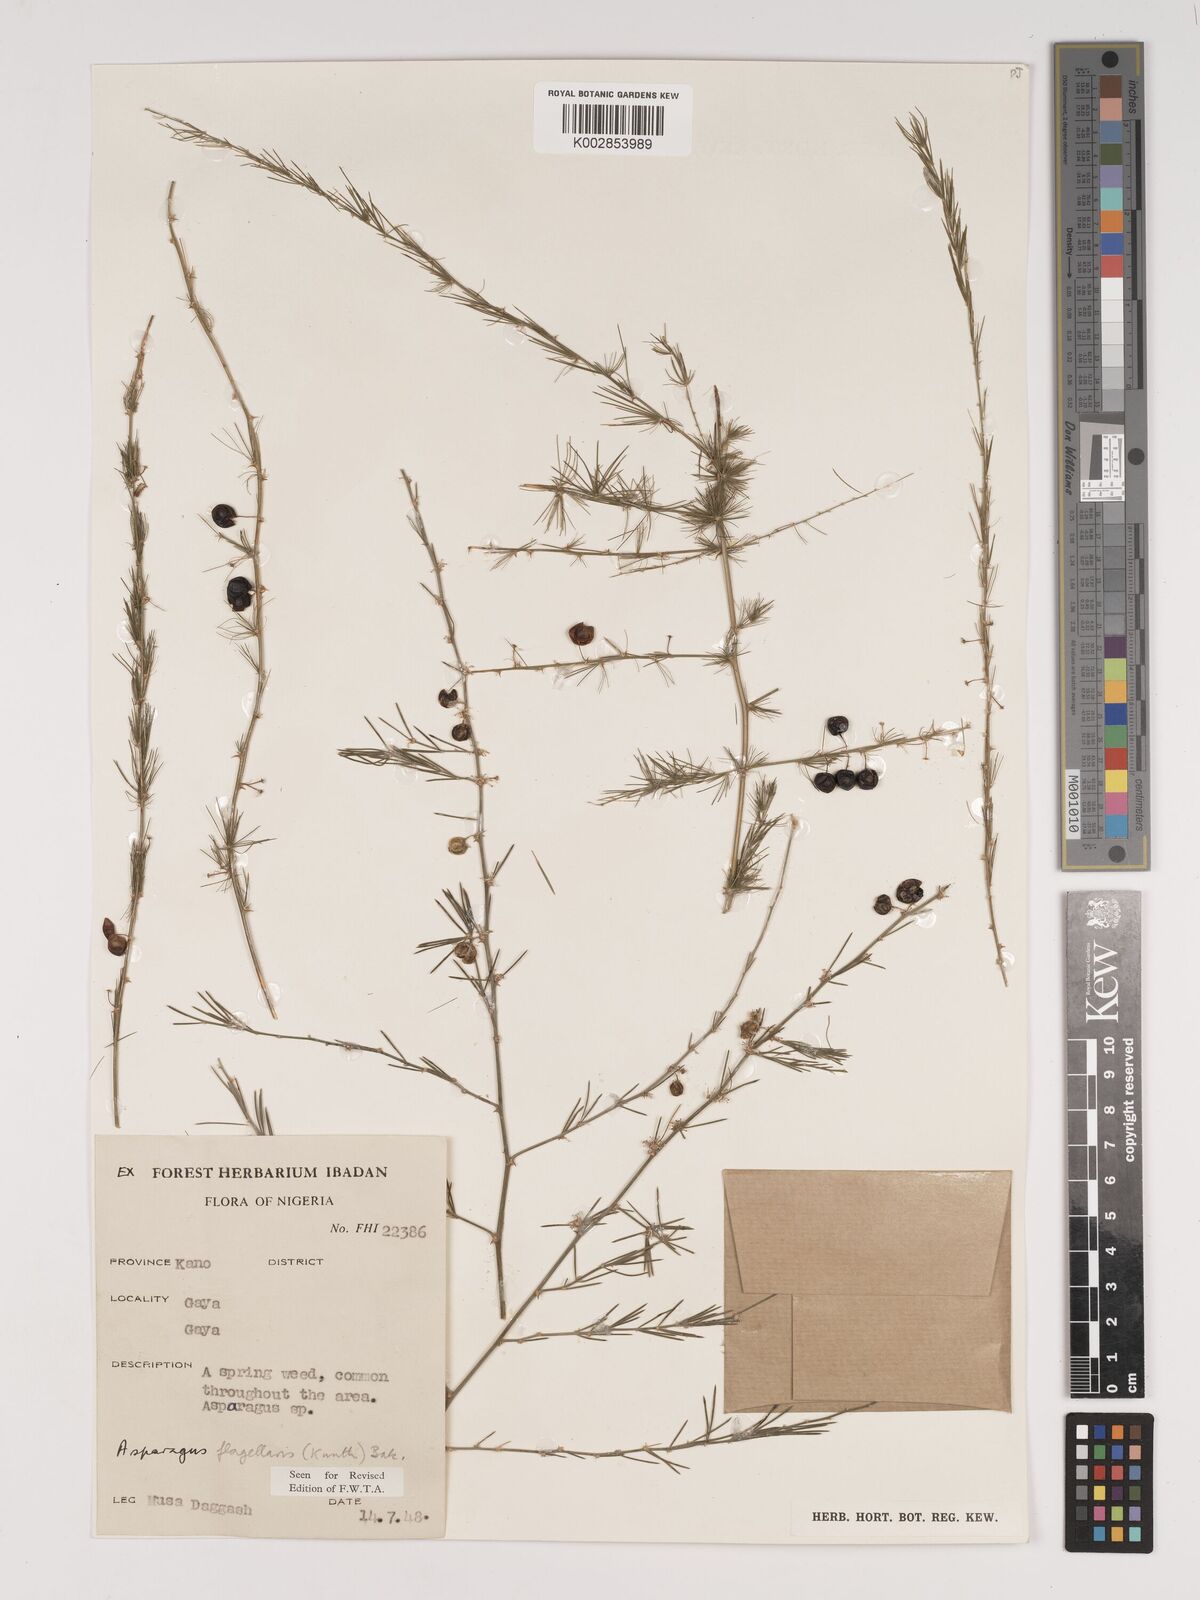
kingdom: Plantae
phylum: Tracheophyta
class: Liliopsida
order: Asparagales
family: Asparagaceae
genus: Asparagus
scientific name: Asparagus flagellaris
